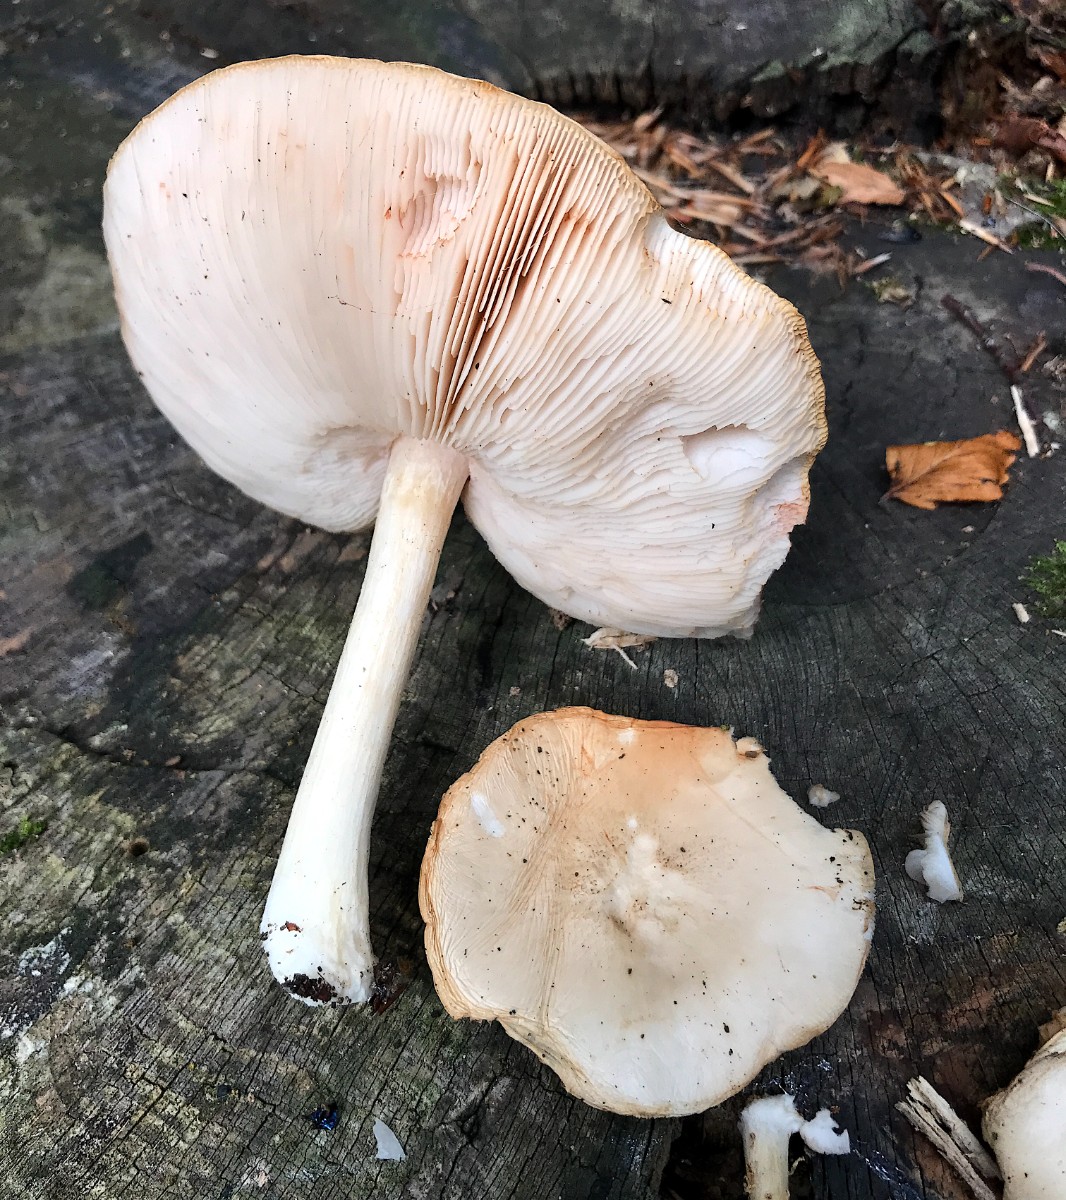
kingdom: Fungi
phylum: Basidiomycota
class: Agaricomycetes
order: Agaricales
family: Pluteaceae
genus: Pluteus
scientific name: Pluteus
